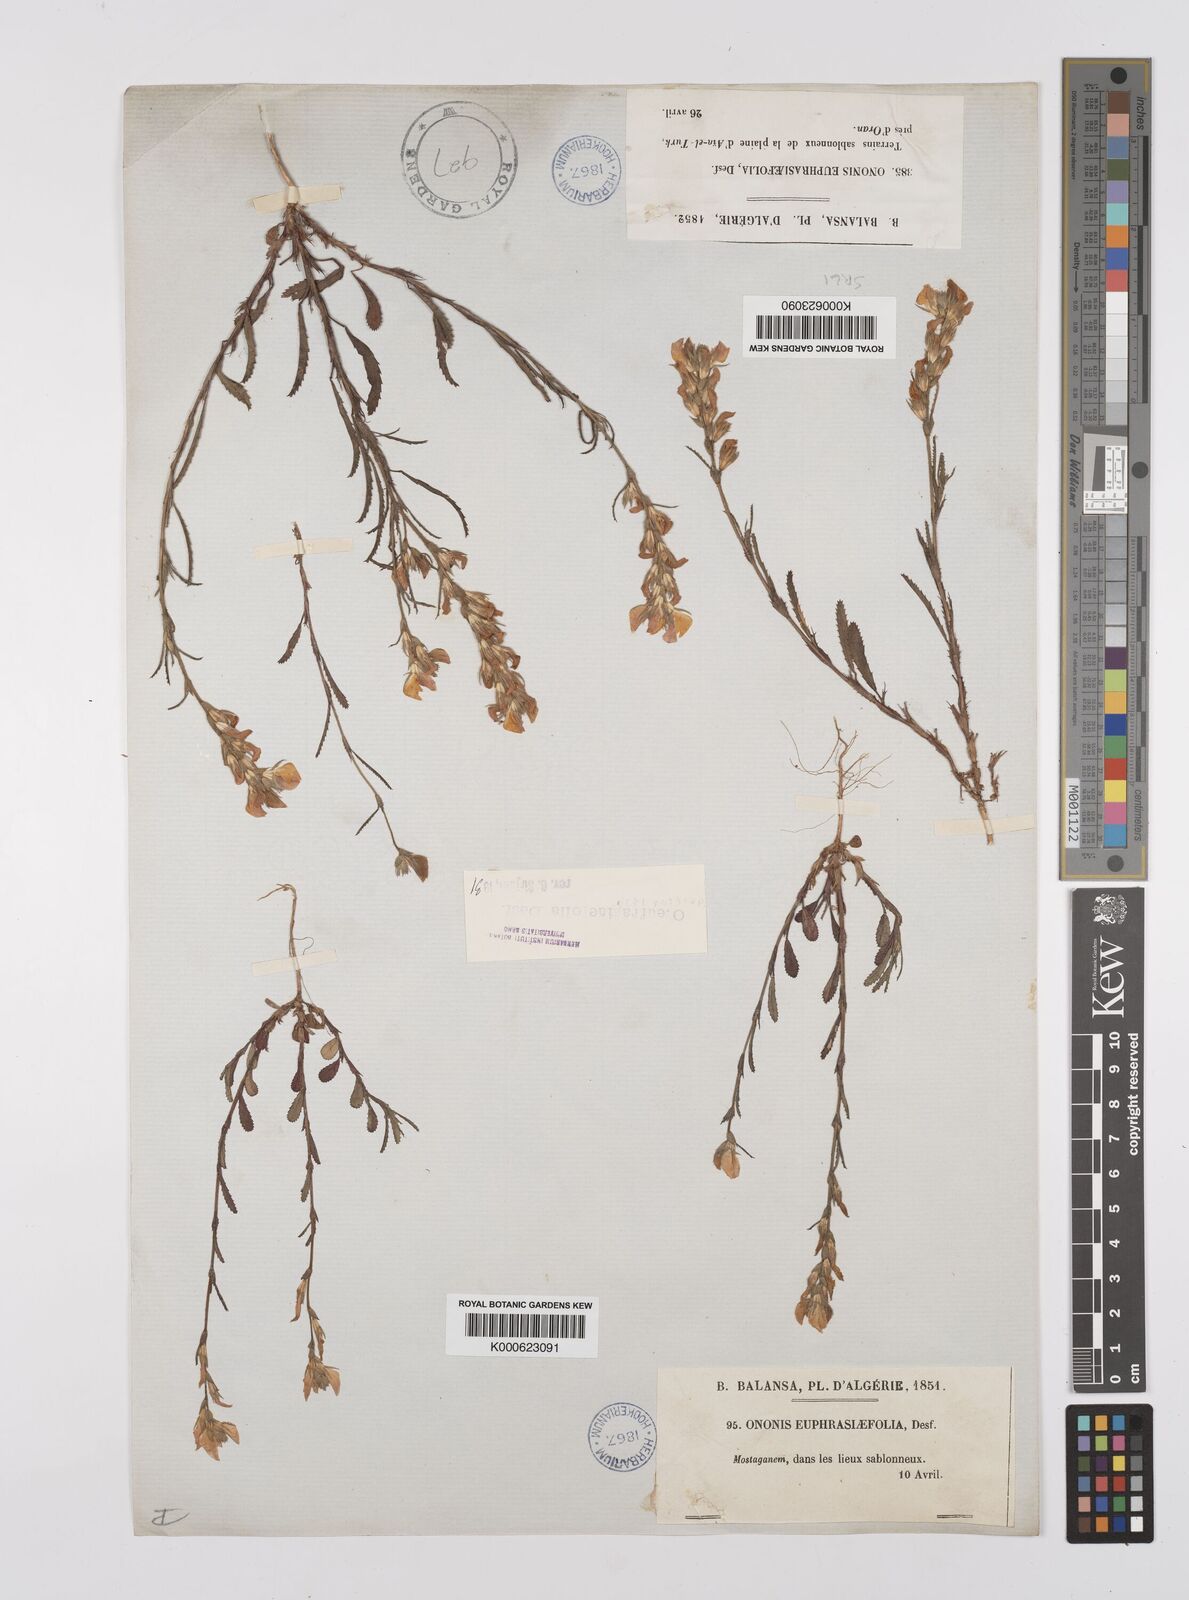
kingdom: Plantae
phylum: Tracheophyta
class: Magnoliopsida
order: Fabales
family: Fabaceae
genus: Ononis
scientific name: Ononis
